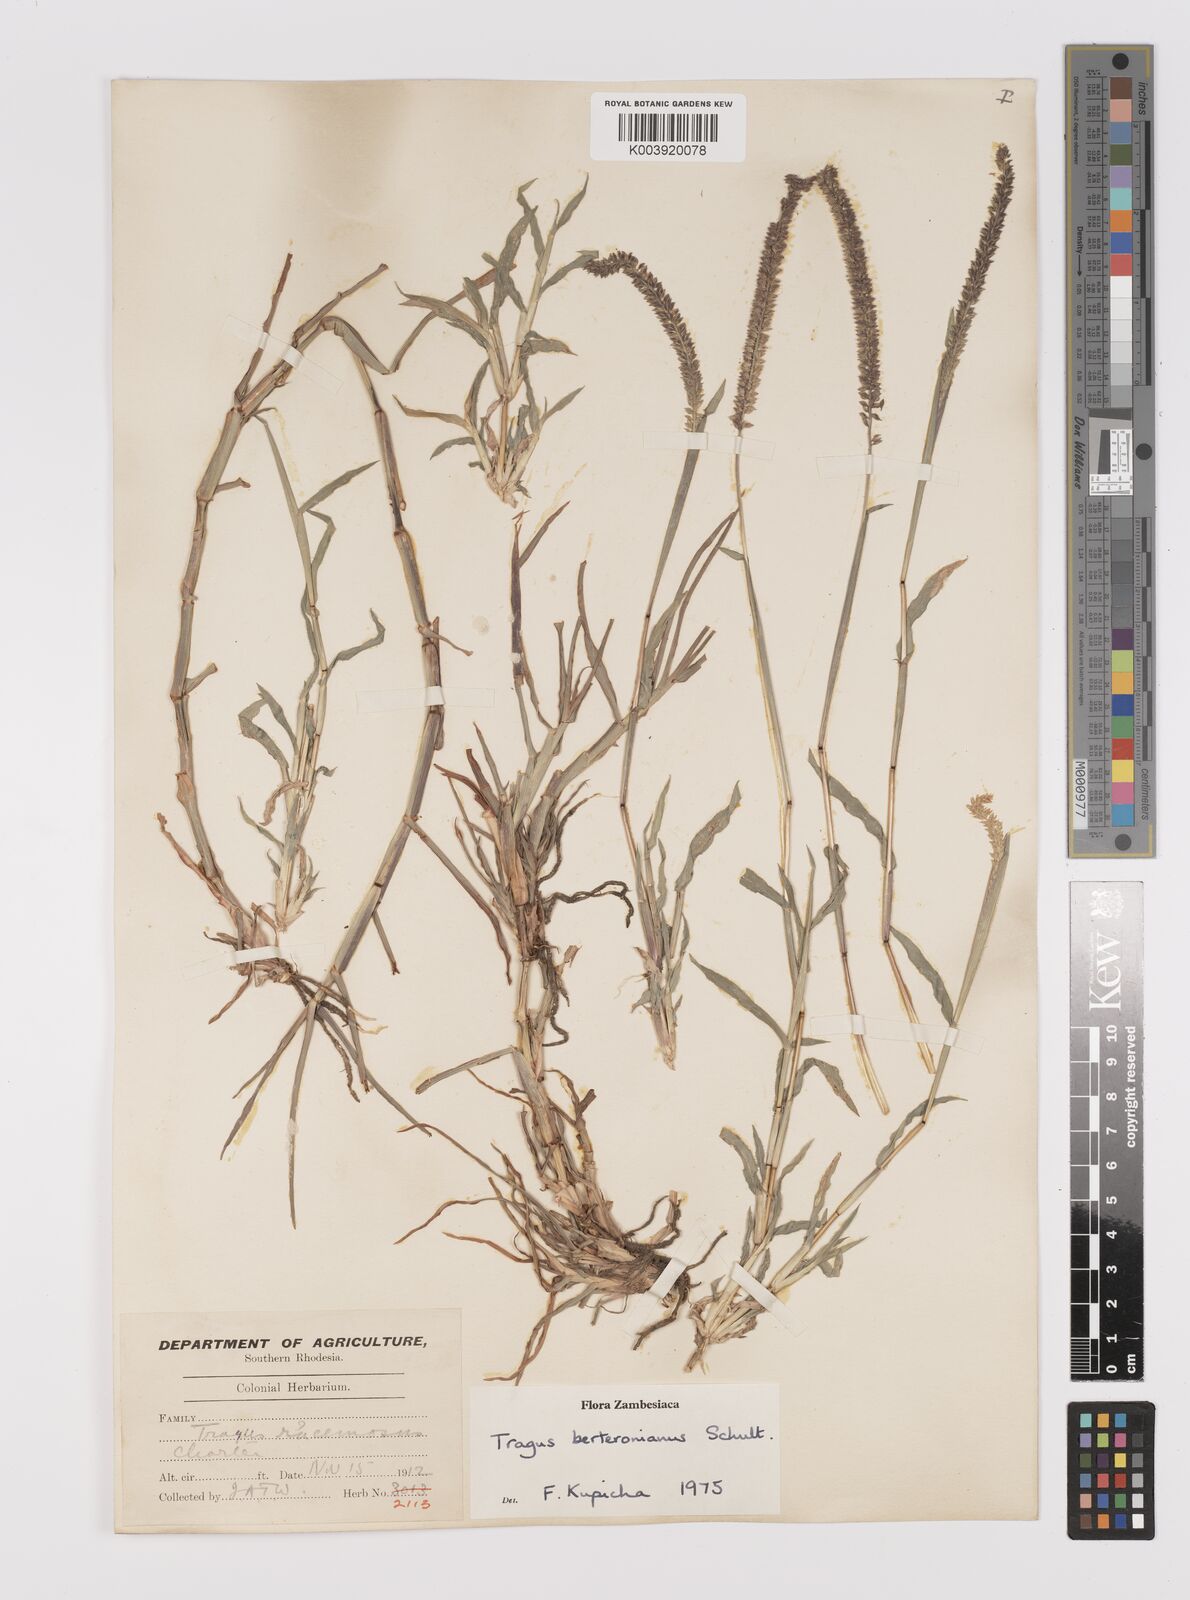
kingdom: Plantae
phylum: Tracheophyta
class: Liliopsida
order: Poales
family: Poaceae
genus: Tragus
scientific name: Tragus berteronianus
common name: African bur-grass
